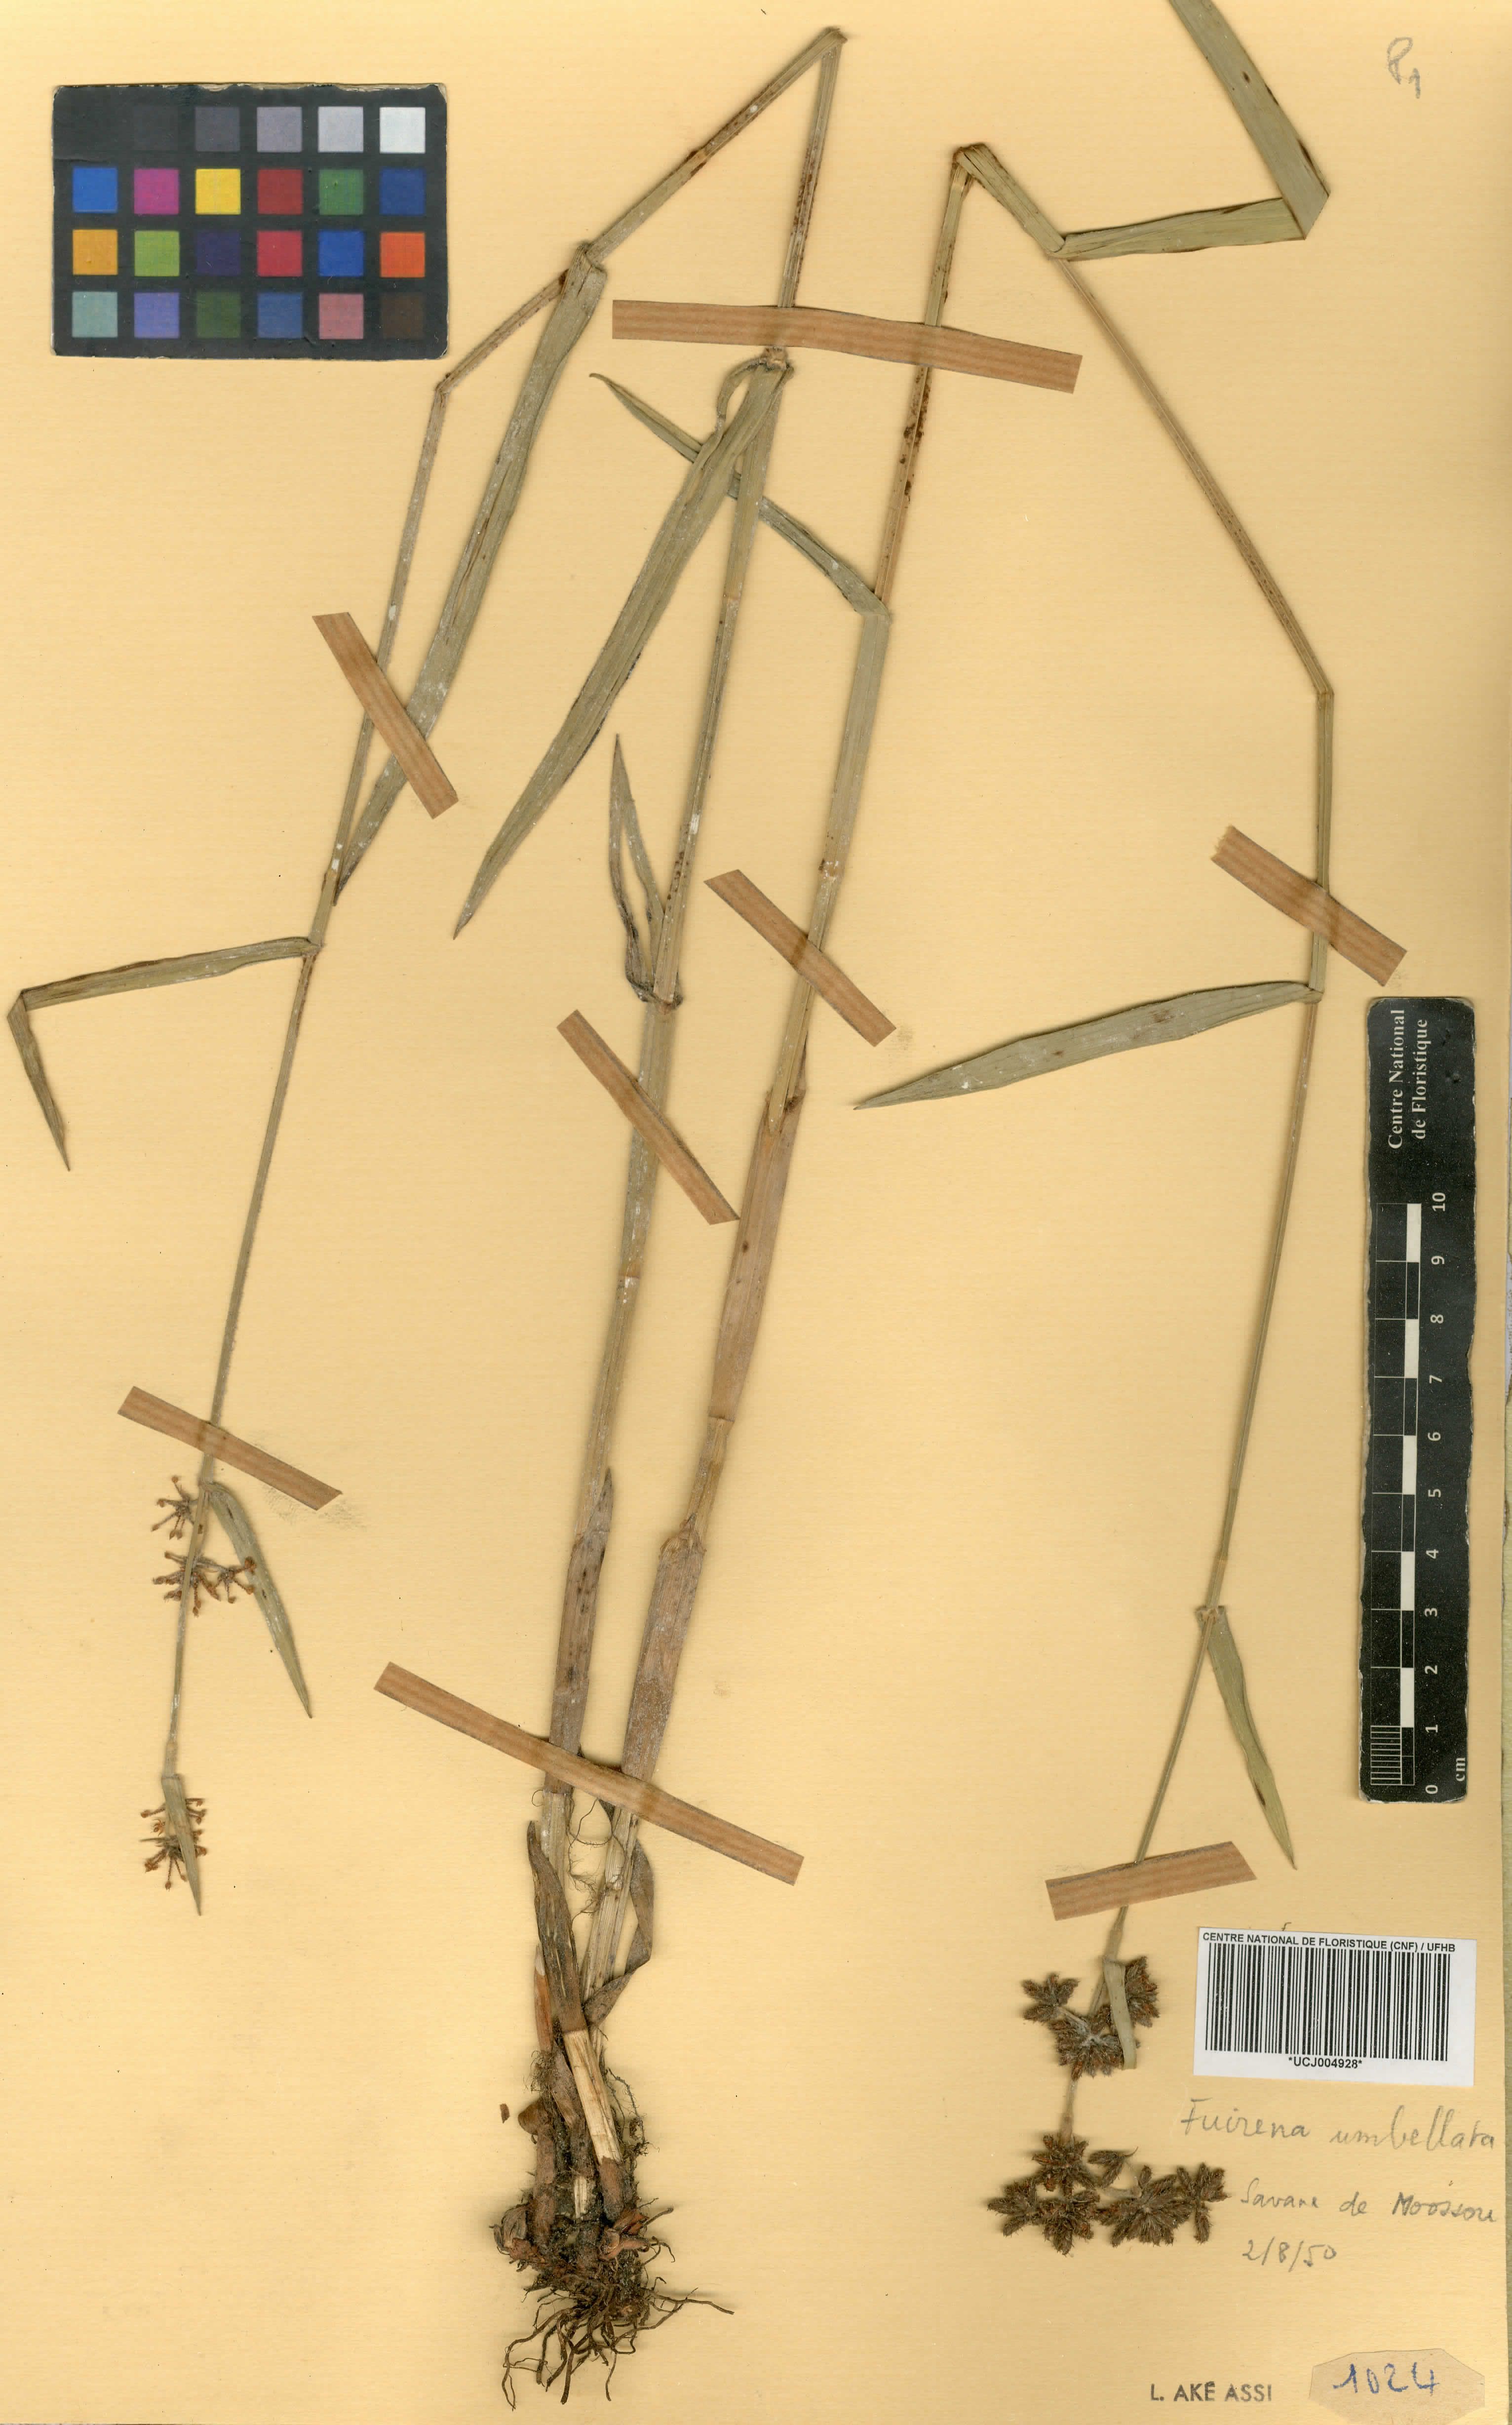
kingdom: Plantae
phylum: Tracheophyta
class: Liliopsida
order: Poales
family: Cyperaceae
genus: Fuirena
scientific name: Fuirena umbellata
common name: Yefen
